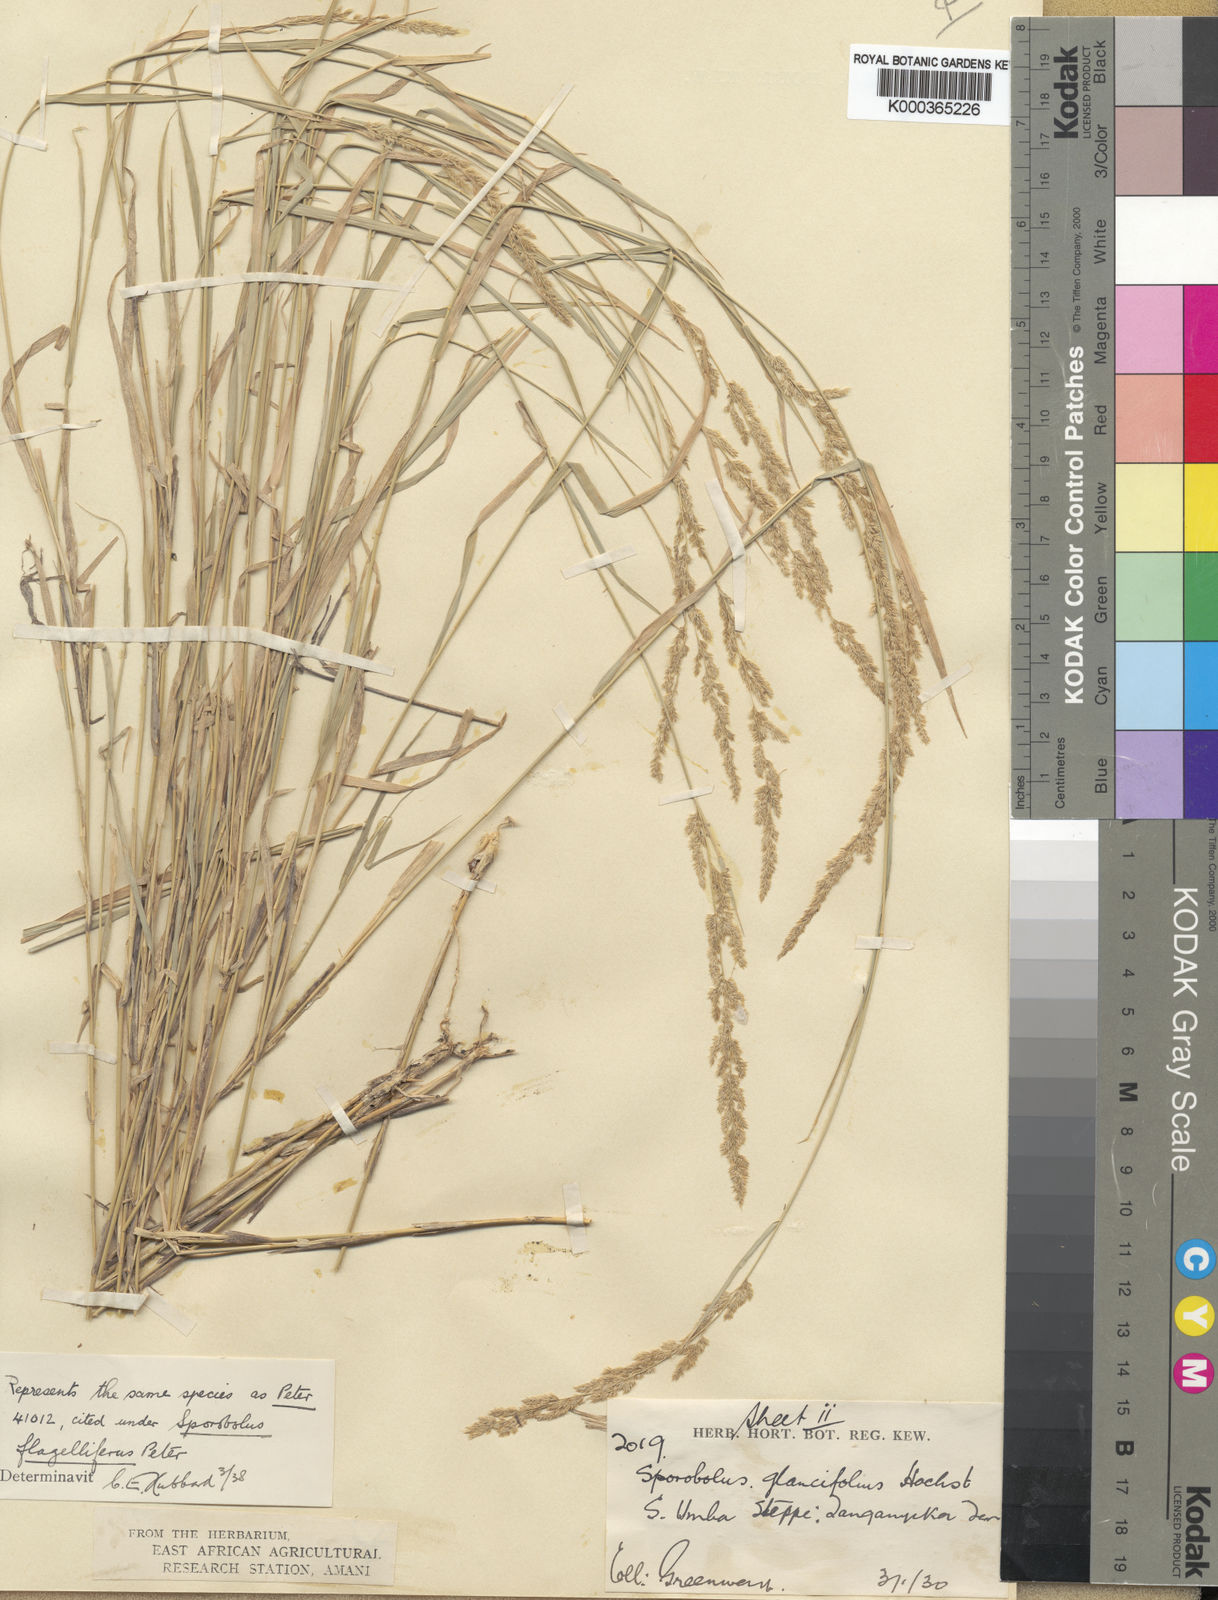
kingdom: Plantae
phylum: Tracheophyta
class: Liliopsida
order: Poales
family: Poaceae
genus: Sporobolus
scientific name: Sporobolus helvolus
